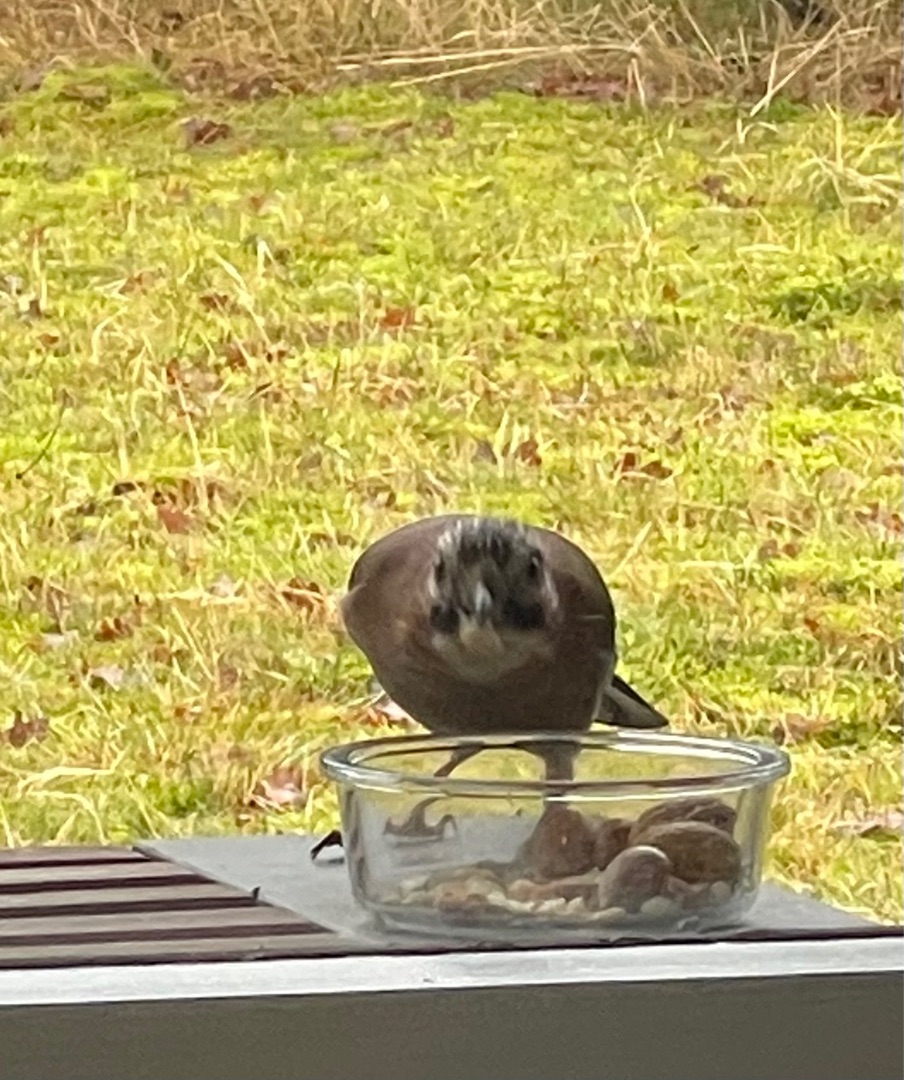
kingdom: Animalia
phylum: Chordata
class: Aves
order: Passeriformes
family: Corvidae
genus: Garrulus
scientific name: Garrulus glandarius
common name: Skovskade
